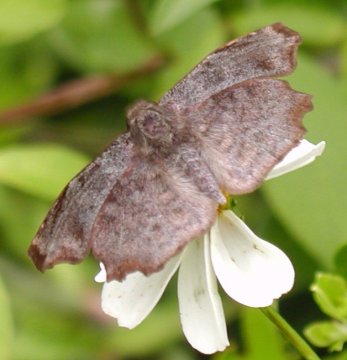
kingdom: Animalia
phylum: Arthropoda
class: Insecta
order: Lepidoptera
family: Hesperiidae
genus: Antigonus
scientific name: Antigonus erosus
